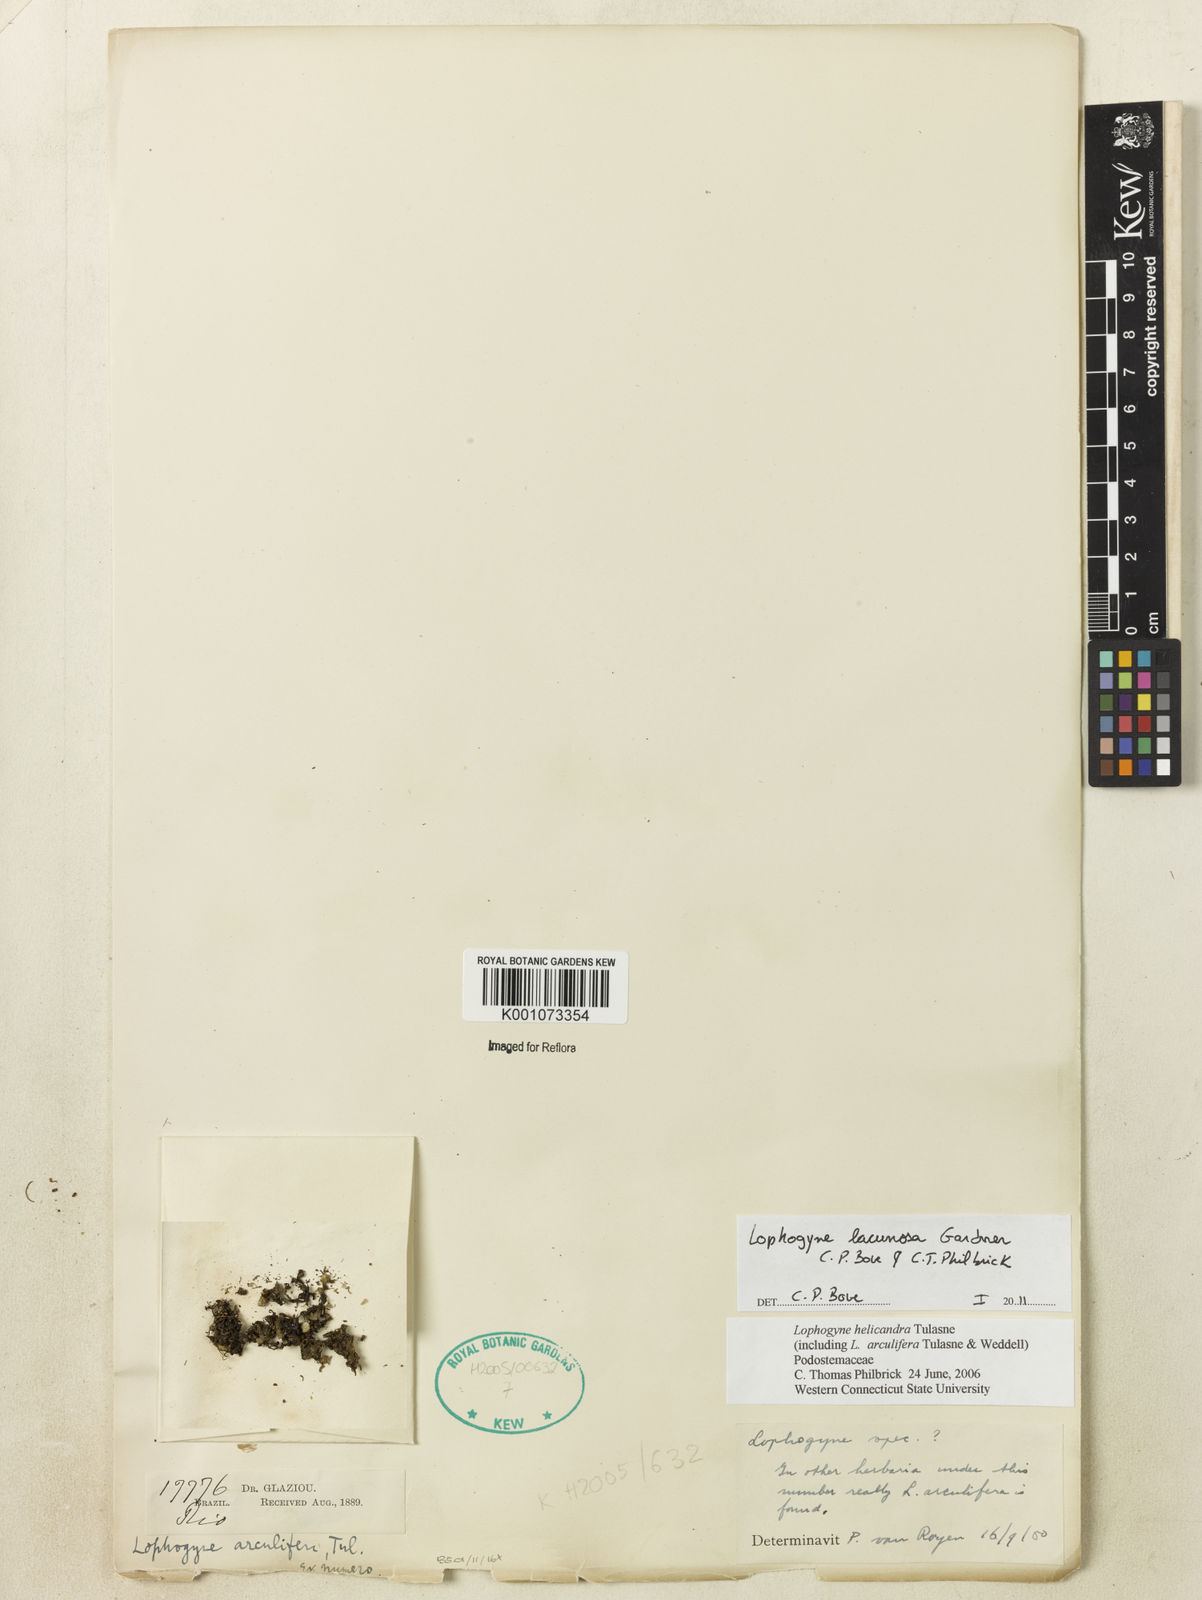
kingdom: Plantae
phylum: Tracheophyta
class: Magnoliopsida
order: Malpighiales
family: Podostemaceae
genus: Lophogyne
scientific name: Lophogyne lacunosa
